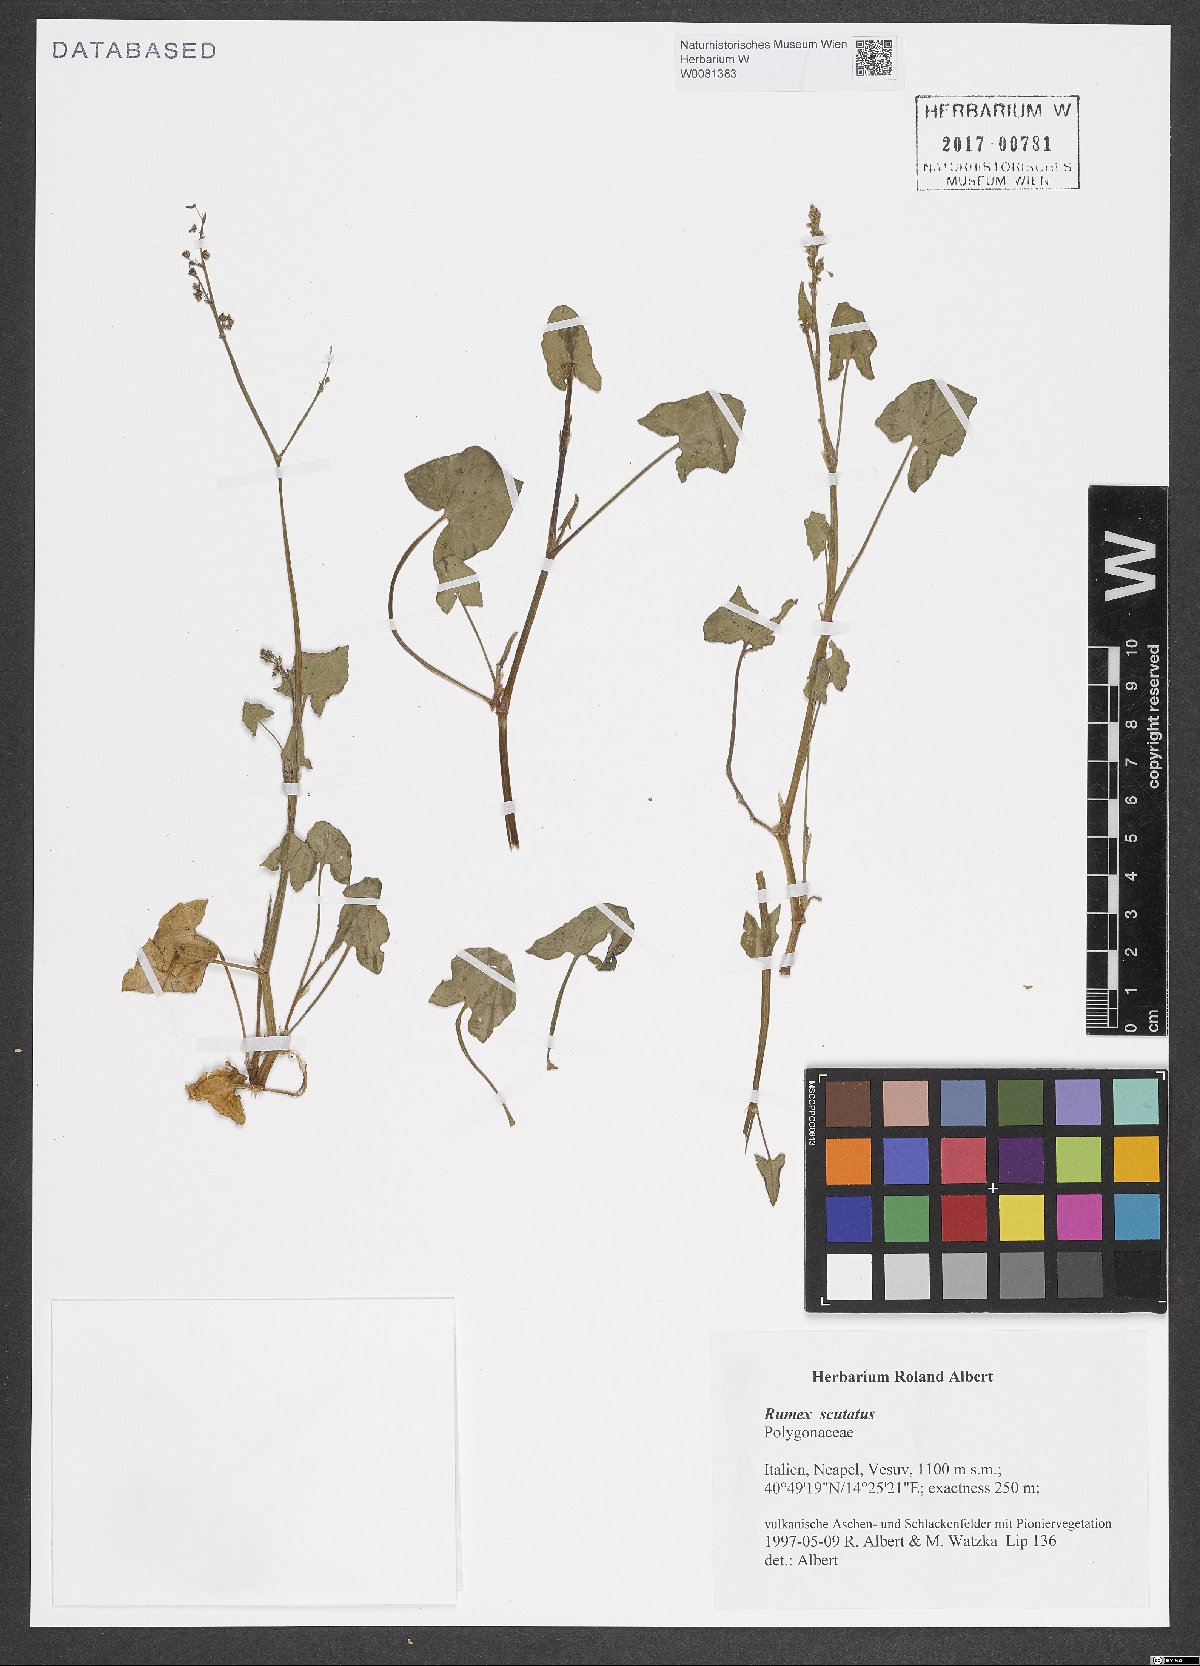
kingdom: Plantae
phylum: Tracheophyta
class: Magnoliopsida
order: Caryophyllales
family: Polygonaceae
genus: Rumex
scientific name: Rumex scutatus
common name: French sorrel
